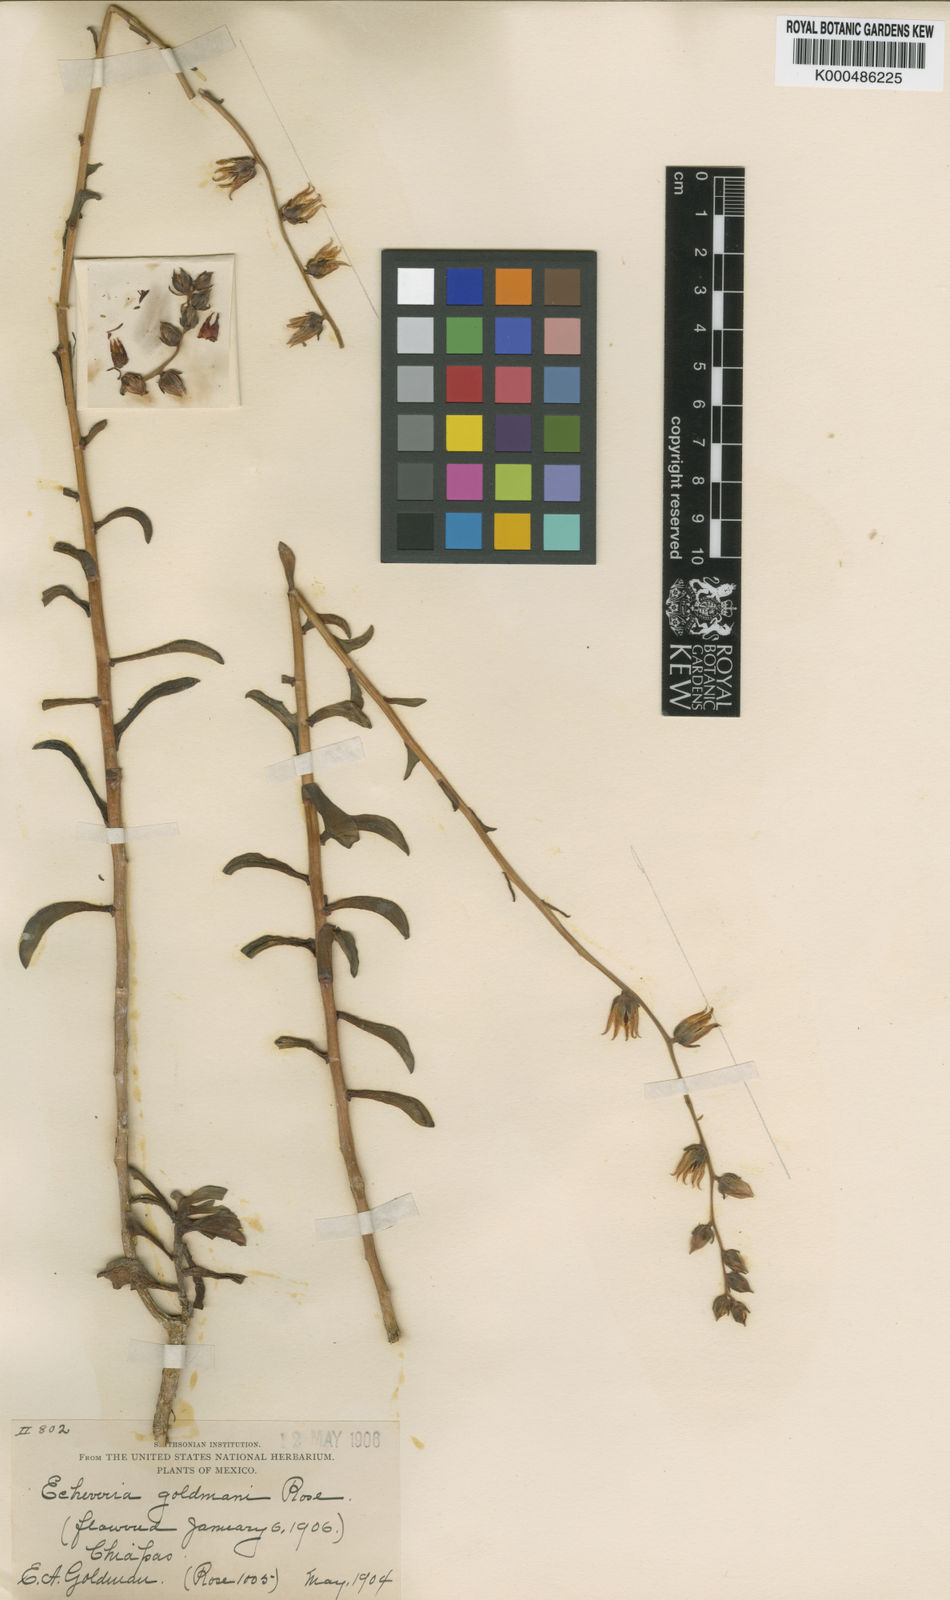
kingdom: Plantae
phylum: Tracheophyta
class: Magnoliopsida
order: Saxifragales
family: Crassulaceae
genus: Dudleya
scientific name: Dudleya cymosa
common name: Canyon dudleya
